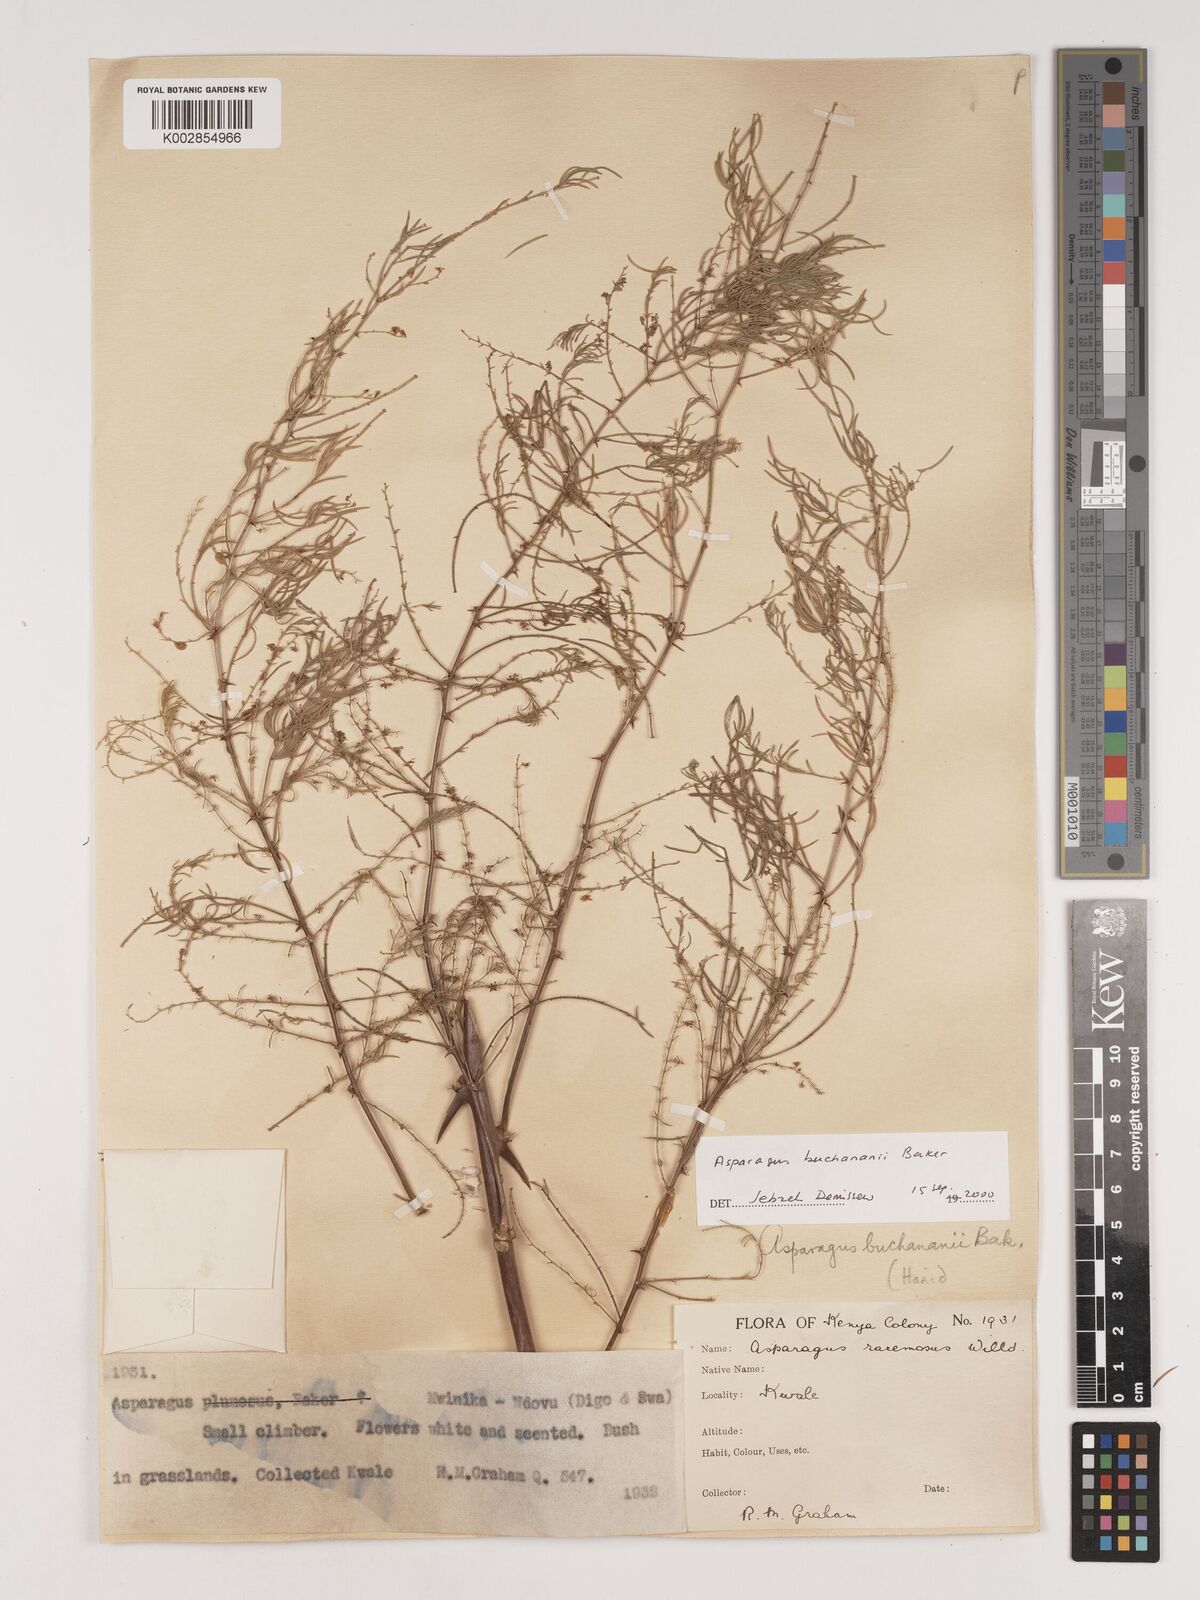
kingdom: Plantae
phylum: Tracheophyta
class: Liliopsida
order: Asparagales
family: Asparagaceae
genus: Asparagus
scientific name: Asparagus buchananii
